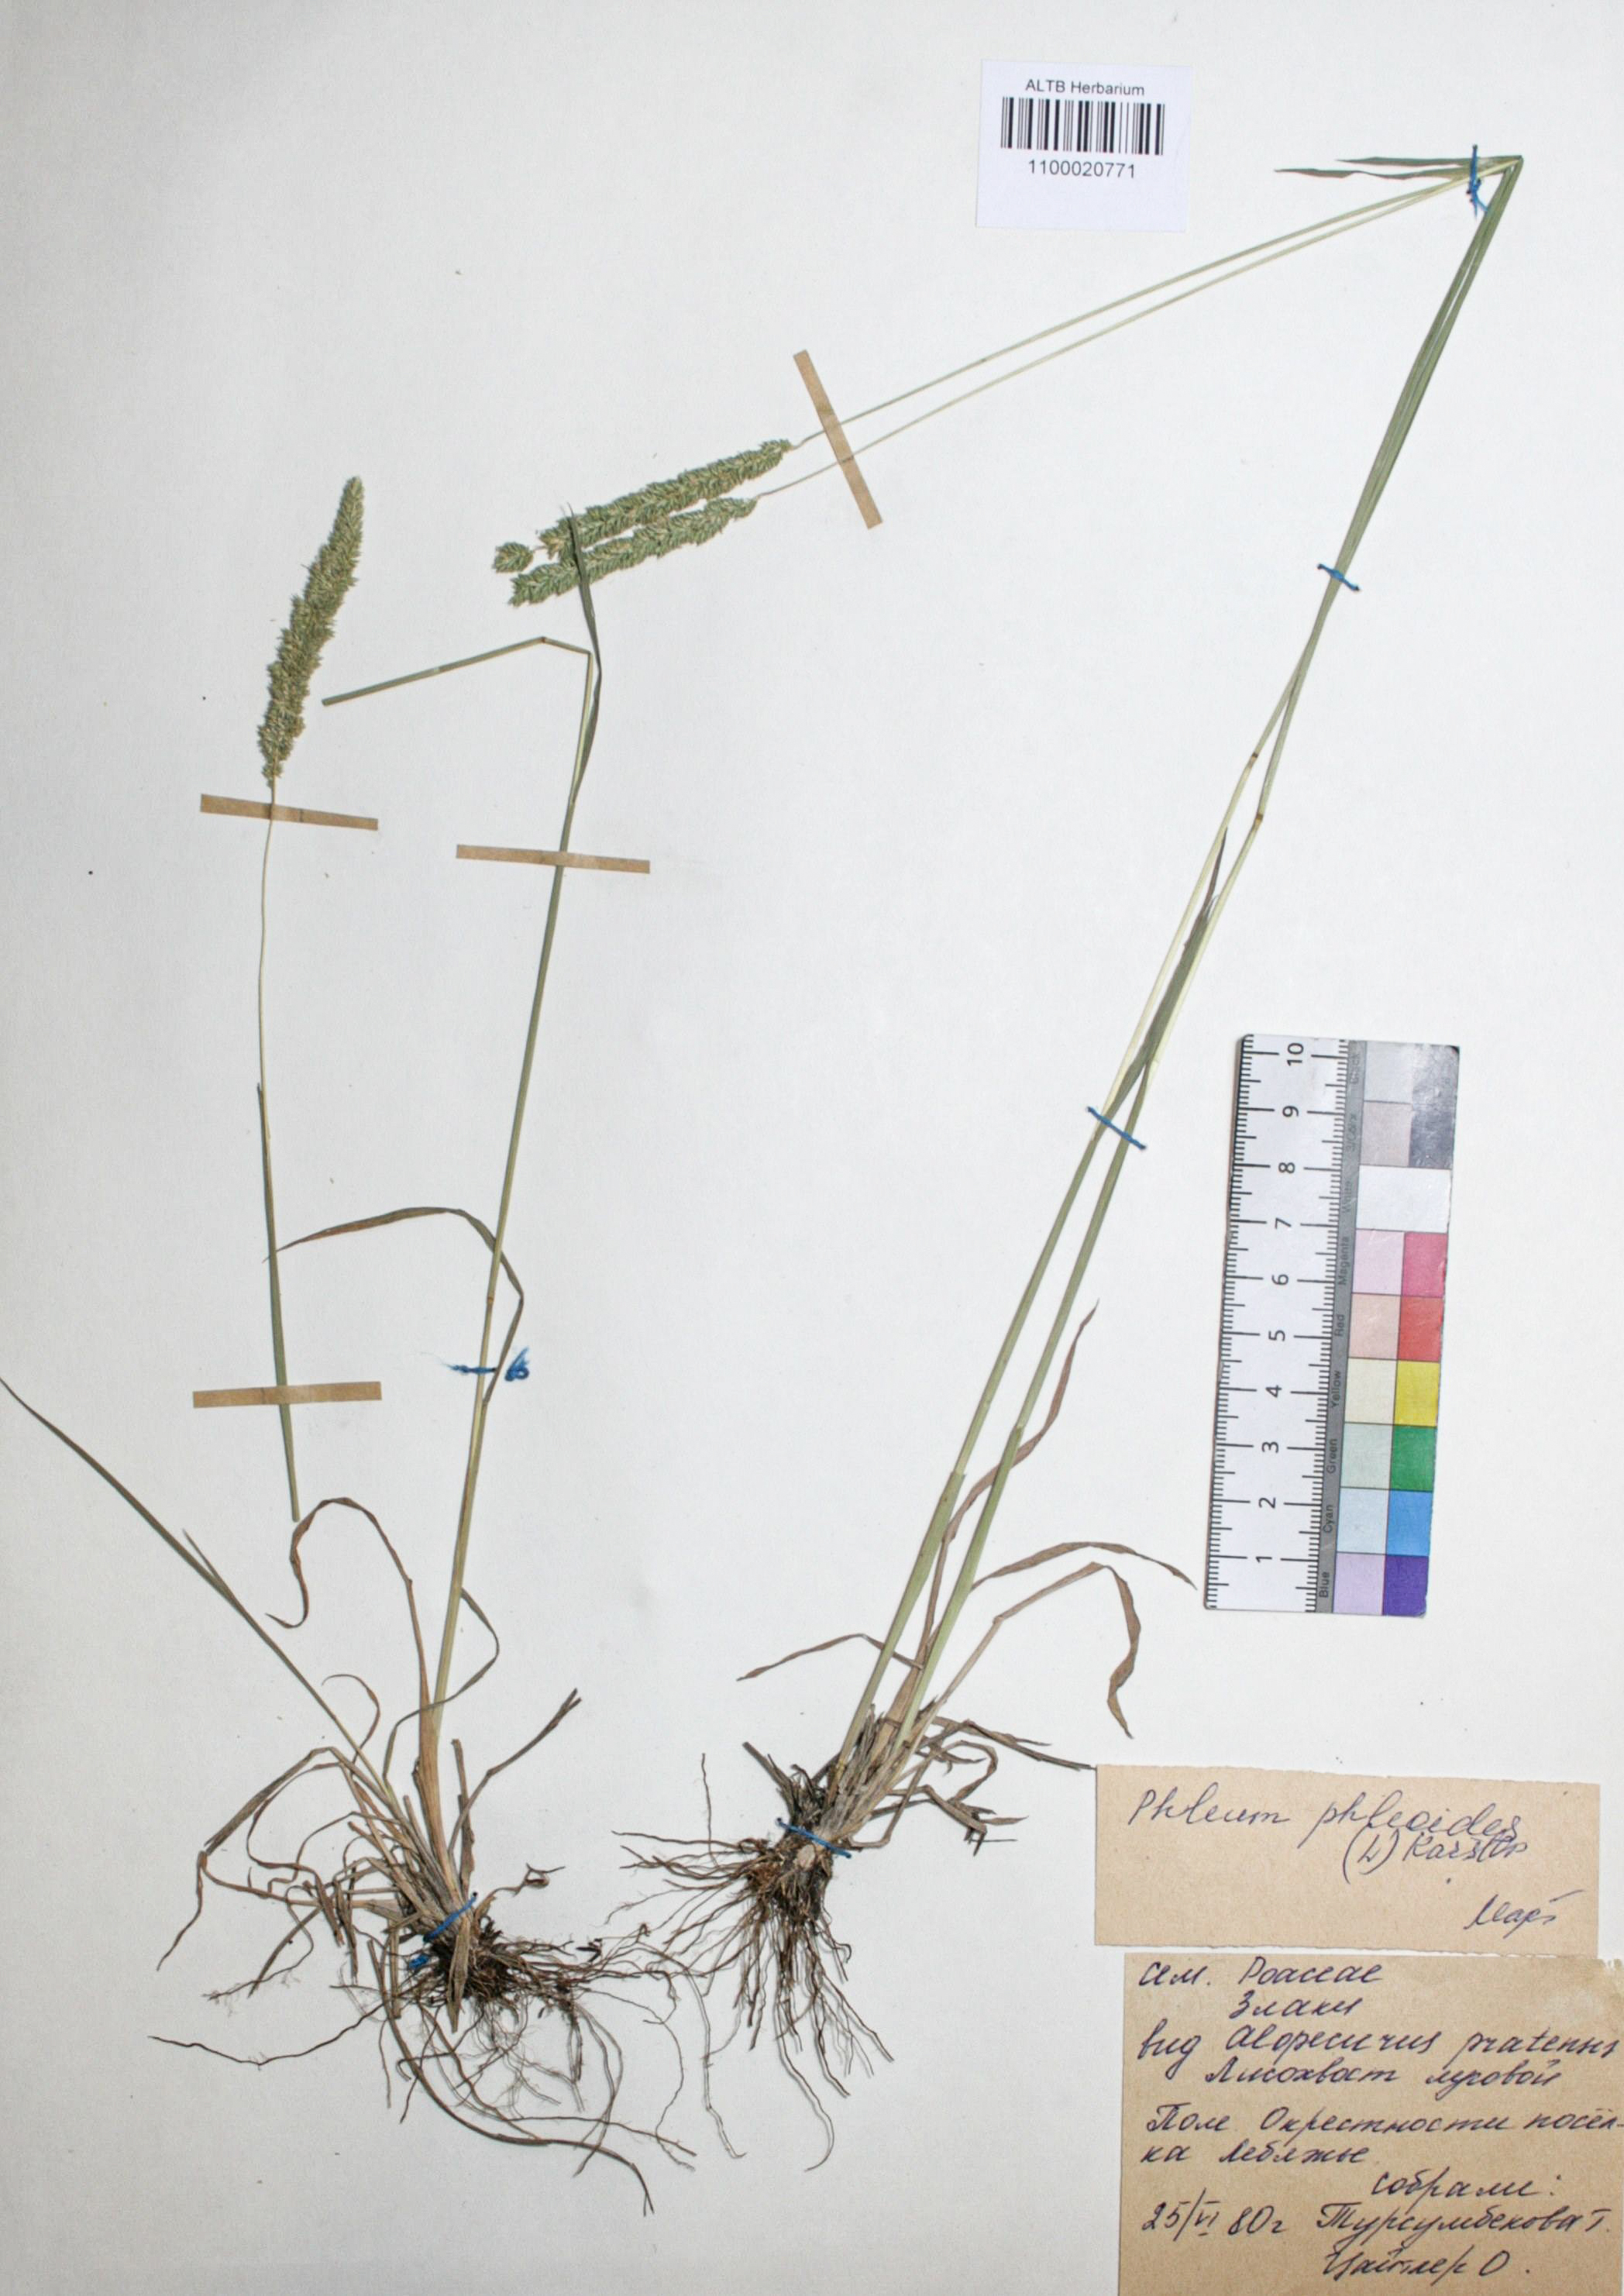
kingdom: Plantae
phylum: Tracheophyta
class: Liliopsida
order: Poales
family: Poaceae
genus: Phleum
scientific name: Phleum phleoides
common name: Purple-stem cat's-tail
